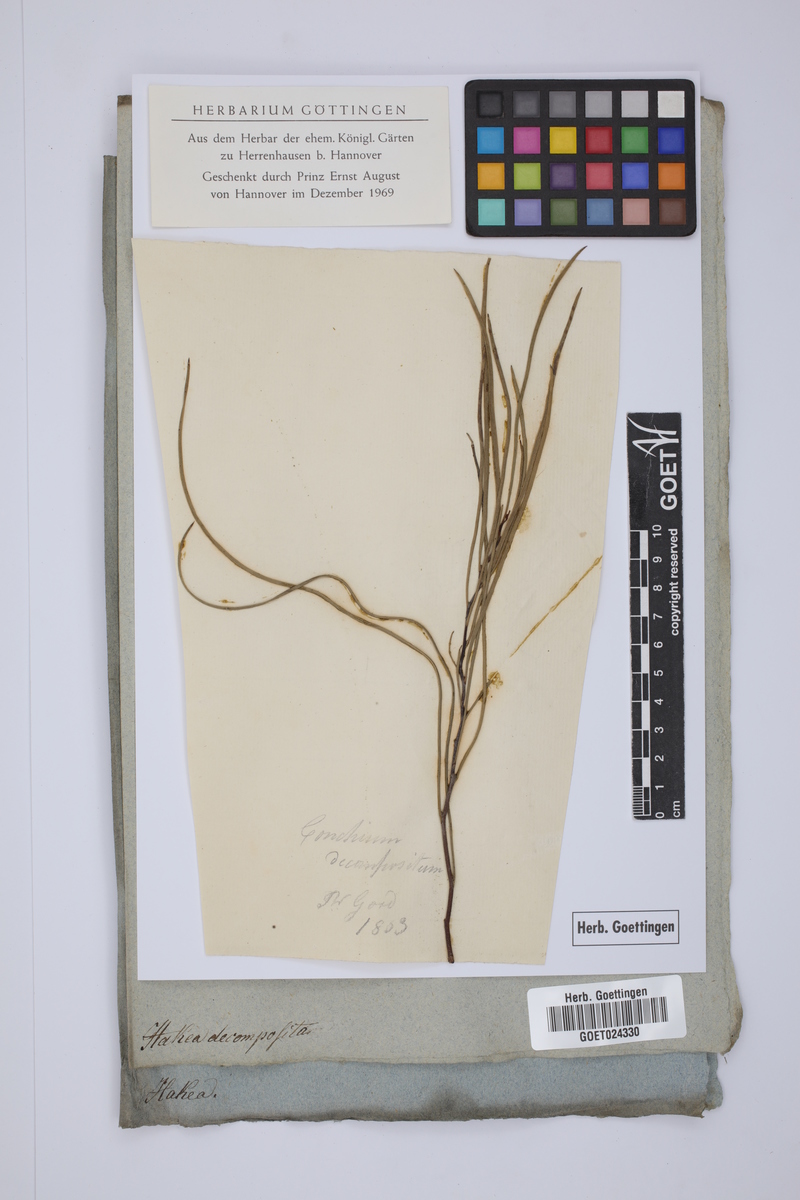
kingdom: Plantae
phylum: Tracheophyta
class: Magnoliopsida
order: Proteales
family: Proteaceae
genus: Hakea
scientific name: Hakea
